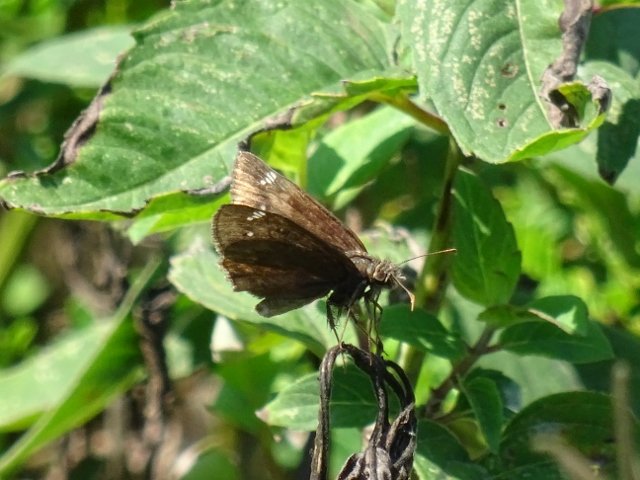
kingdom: Animalia
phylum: Arthropoda
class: Insecta
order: Lepidoptera
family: Hesperiidae
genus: Gesta
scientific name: Gesta
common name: Wild Indigo Duskywing
